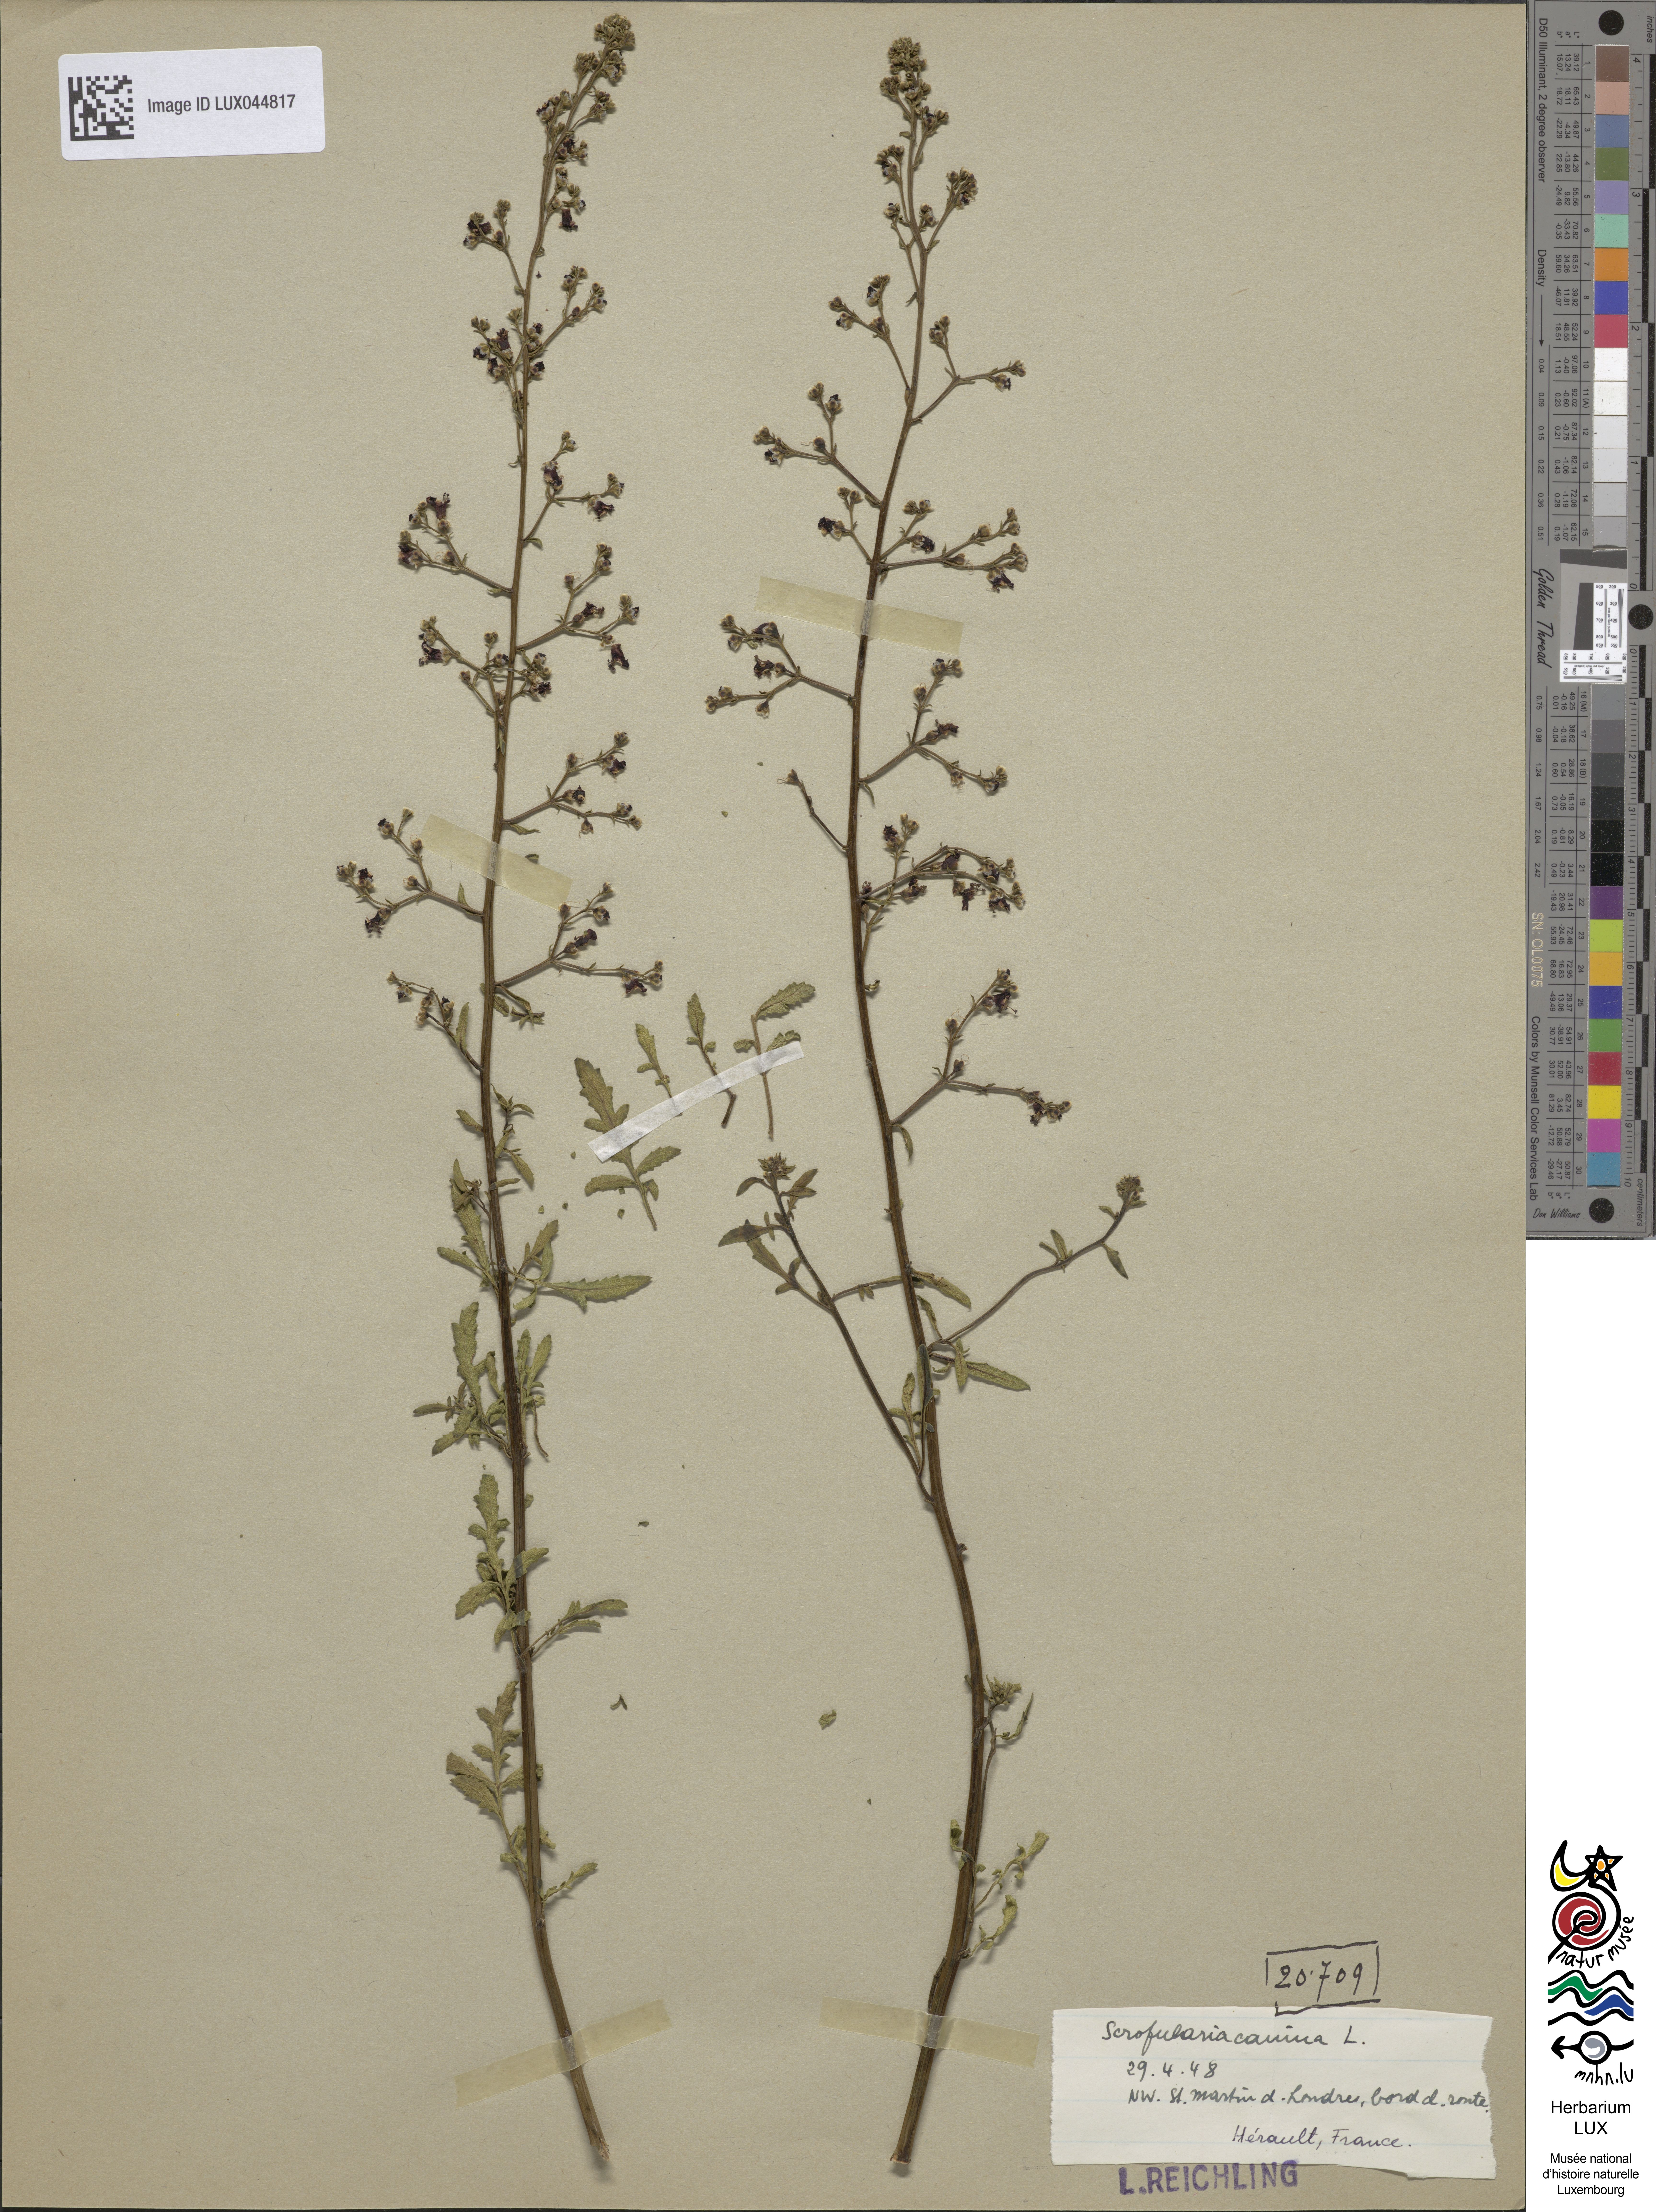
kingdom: Plantae
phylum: Tracheophyta
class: Magnoliopsida
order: Lamiales
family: Scrophulariaceae
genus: Scrophularia
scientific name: Scrophularia canina
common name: French figwort
